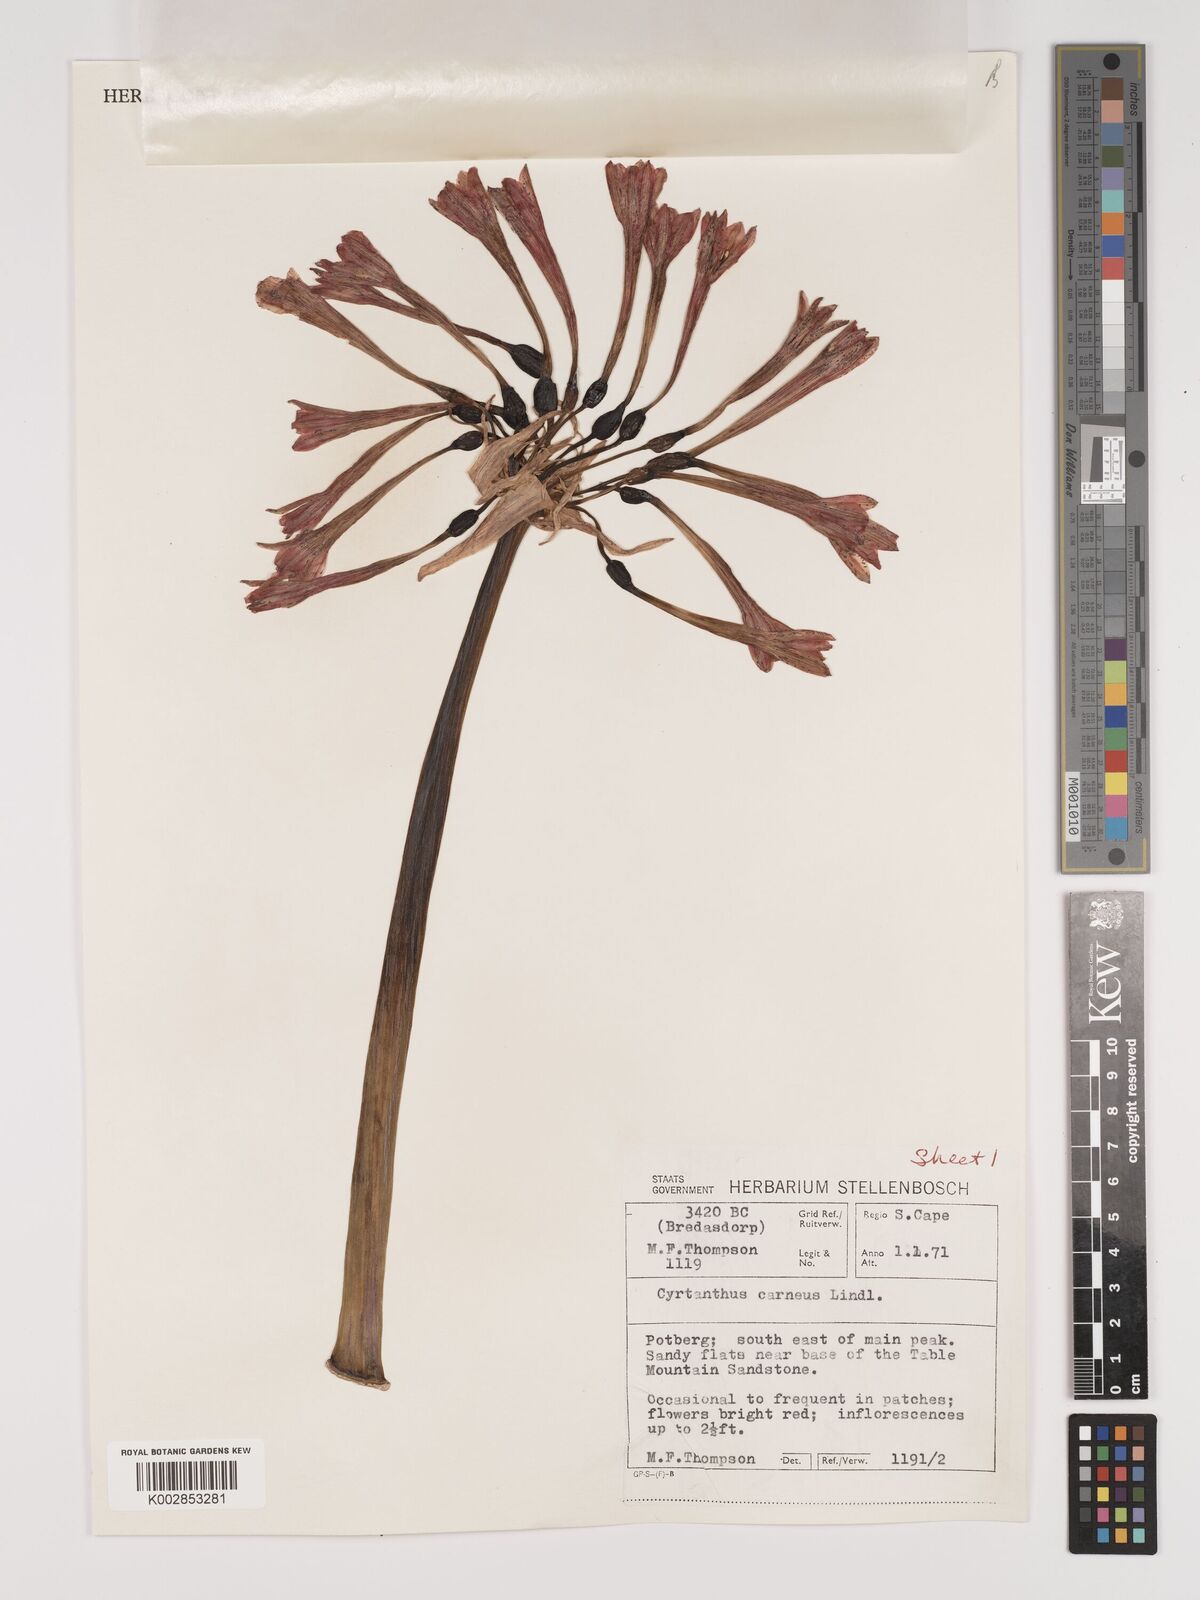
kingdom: Plantae
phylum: Tracheophyta
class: Liliopsida
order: Asparagales
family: Amaryllidaceae
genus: Cyrtanthus
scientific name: Cyrtanthus carneus
